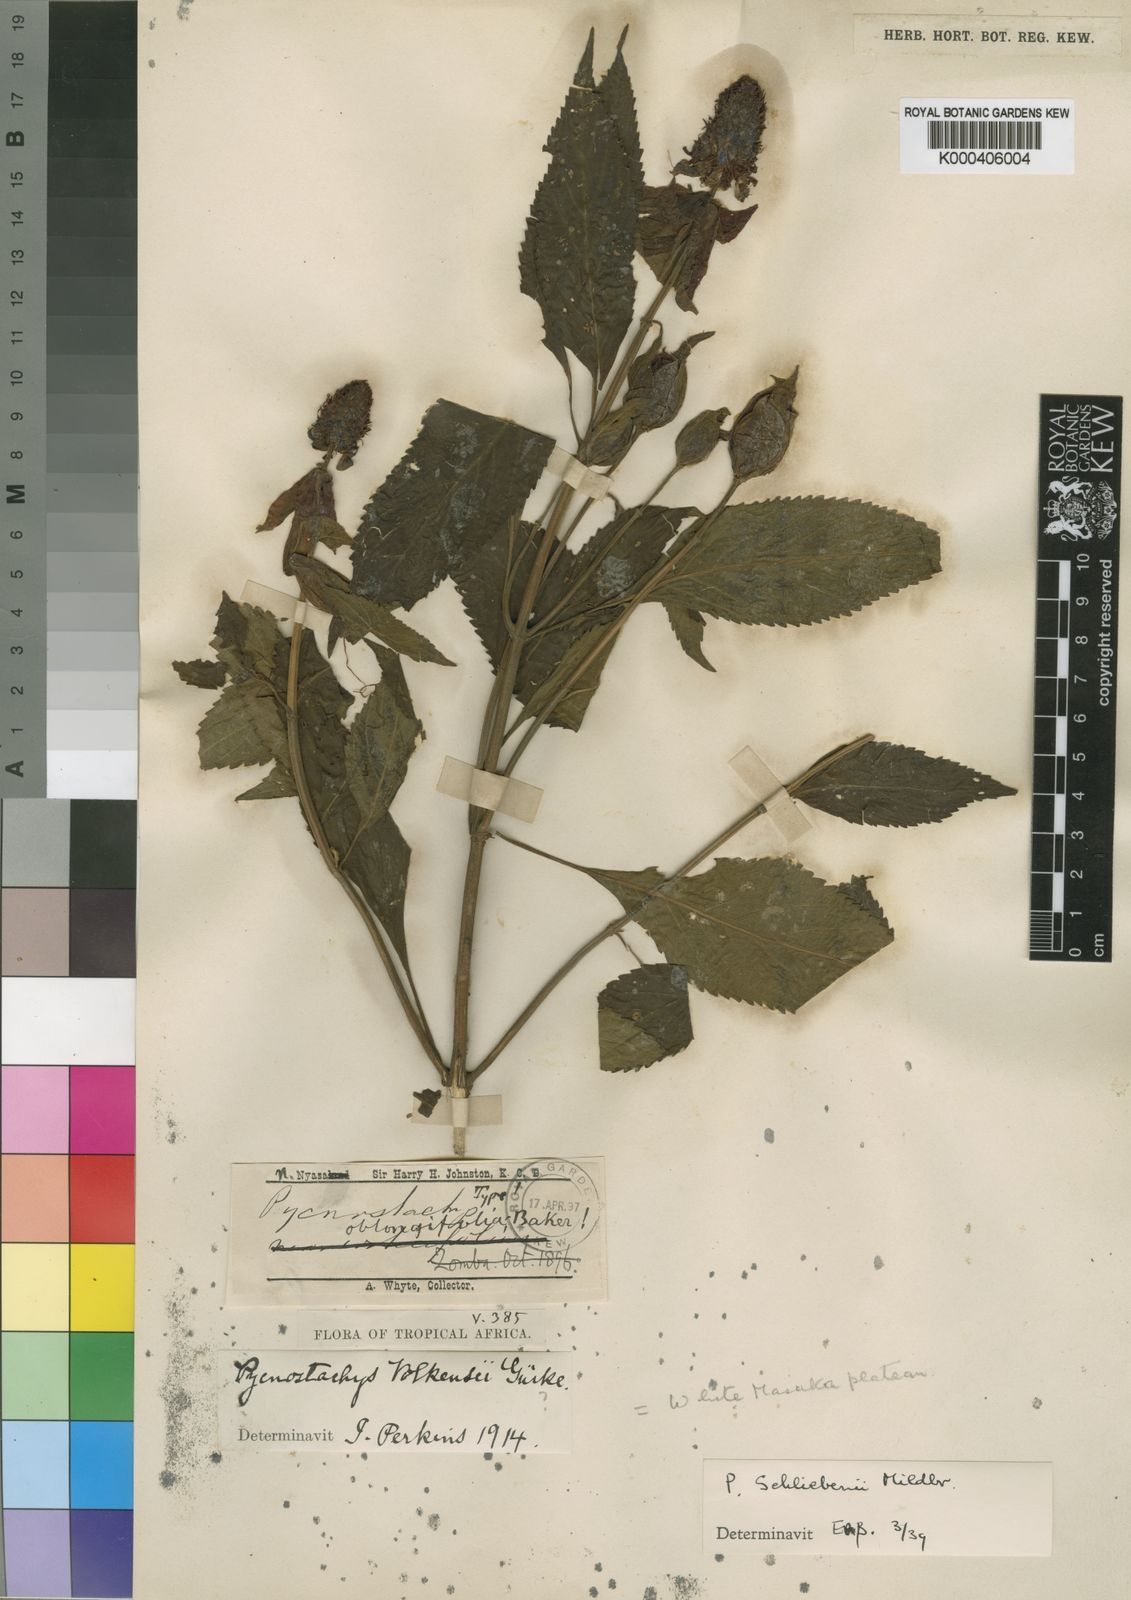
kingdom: Plantae
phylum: Tracheophyta
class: Magnoliopsida
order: Lamiales
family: Lamiaceae
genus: Coleus
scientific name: Coleus schliebenii
